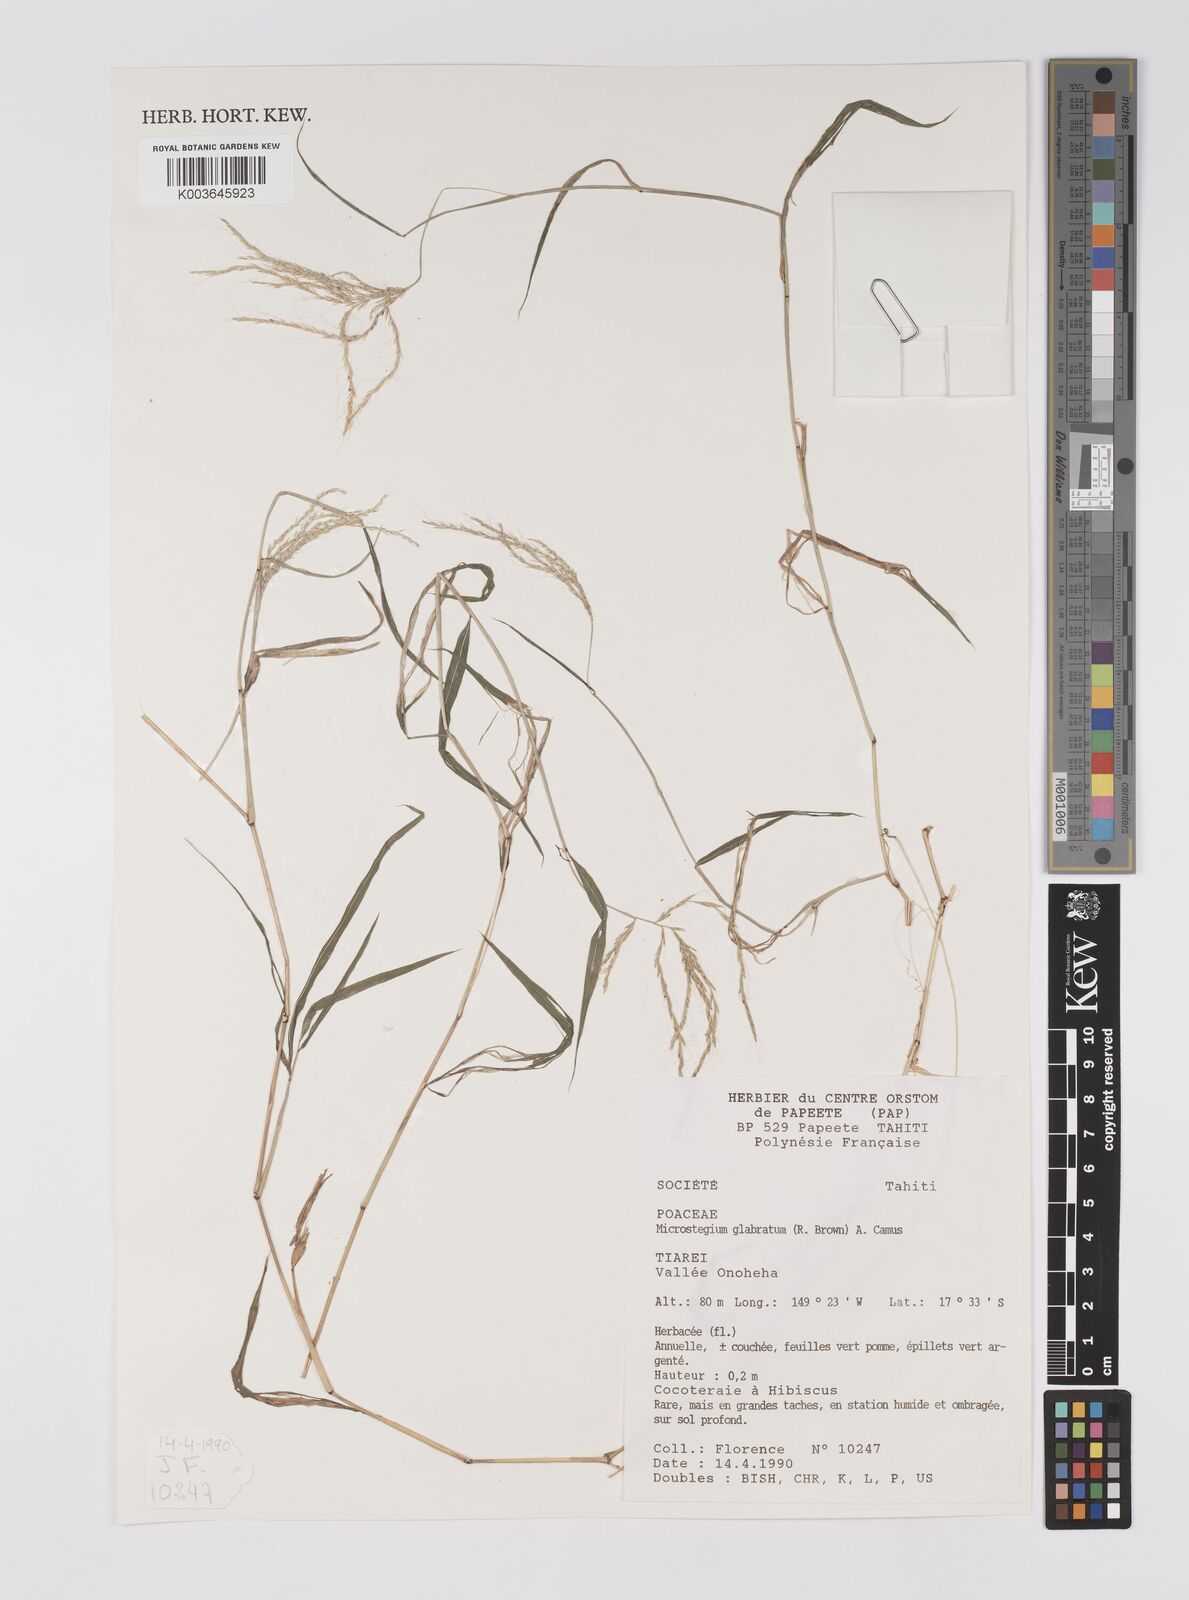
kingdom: Plantae
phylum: Tracheophyta
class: Liliopsida
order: Poales
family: Poaceae
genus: Microstegium
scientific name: Microstegium glabratum
